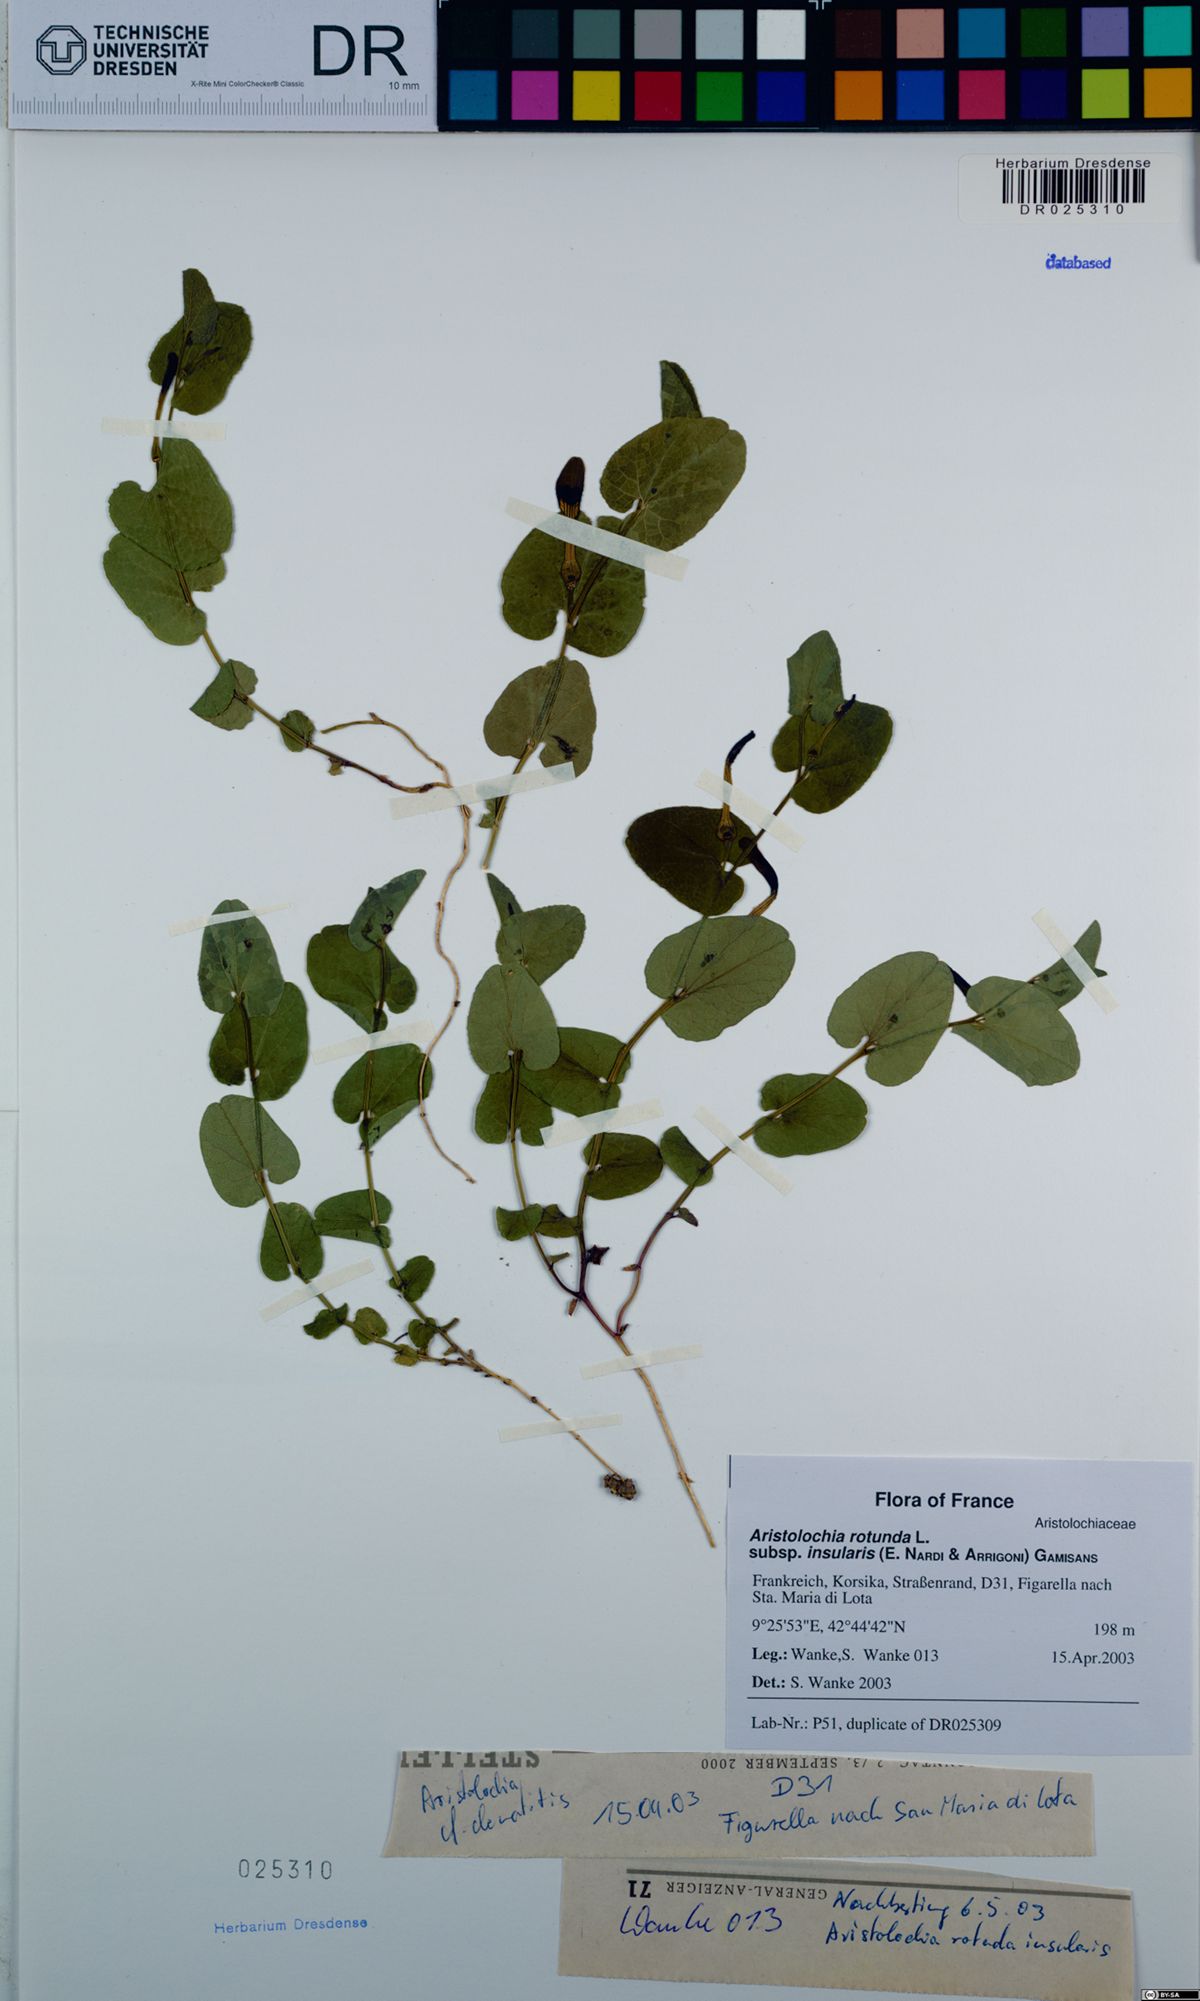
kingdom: Plantae
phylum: Tracheophyta
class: Magnoliopsida
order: Piperales
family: Aristolochiaceae
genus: Aristolochia
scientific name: Aristolochia rotunda
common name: Smearwort
